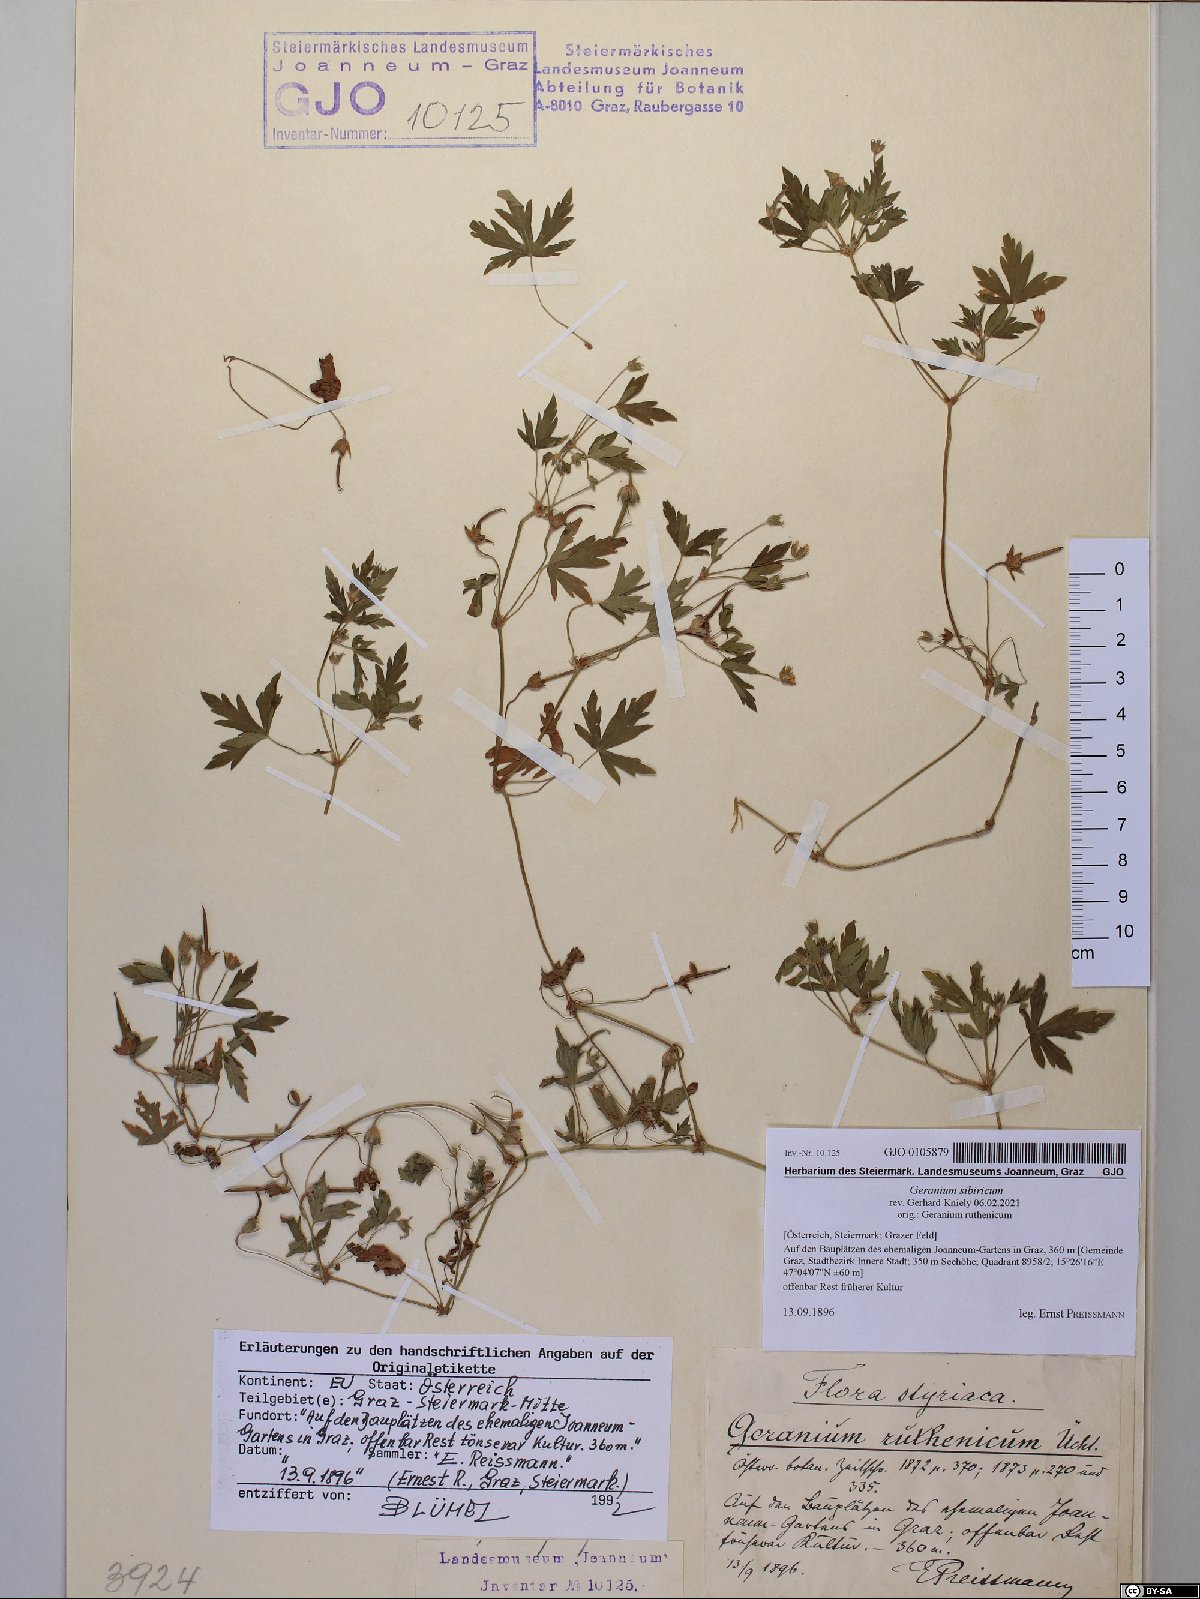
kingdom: Plantae
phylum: Tracheophyta
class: Magnoliopsida
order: Geraniales
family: Geraniaceae
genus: Geranium
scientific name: Geranium sibiricum
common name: Siberian crane's-bill
